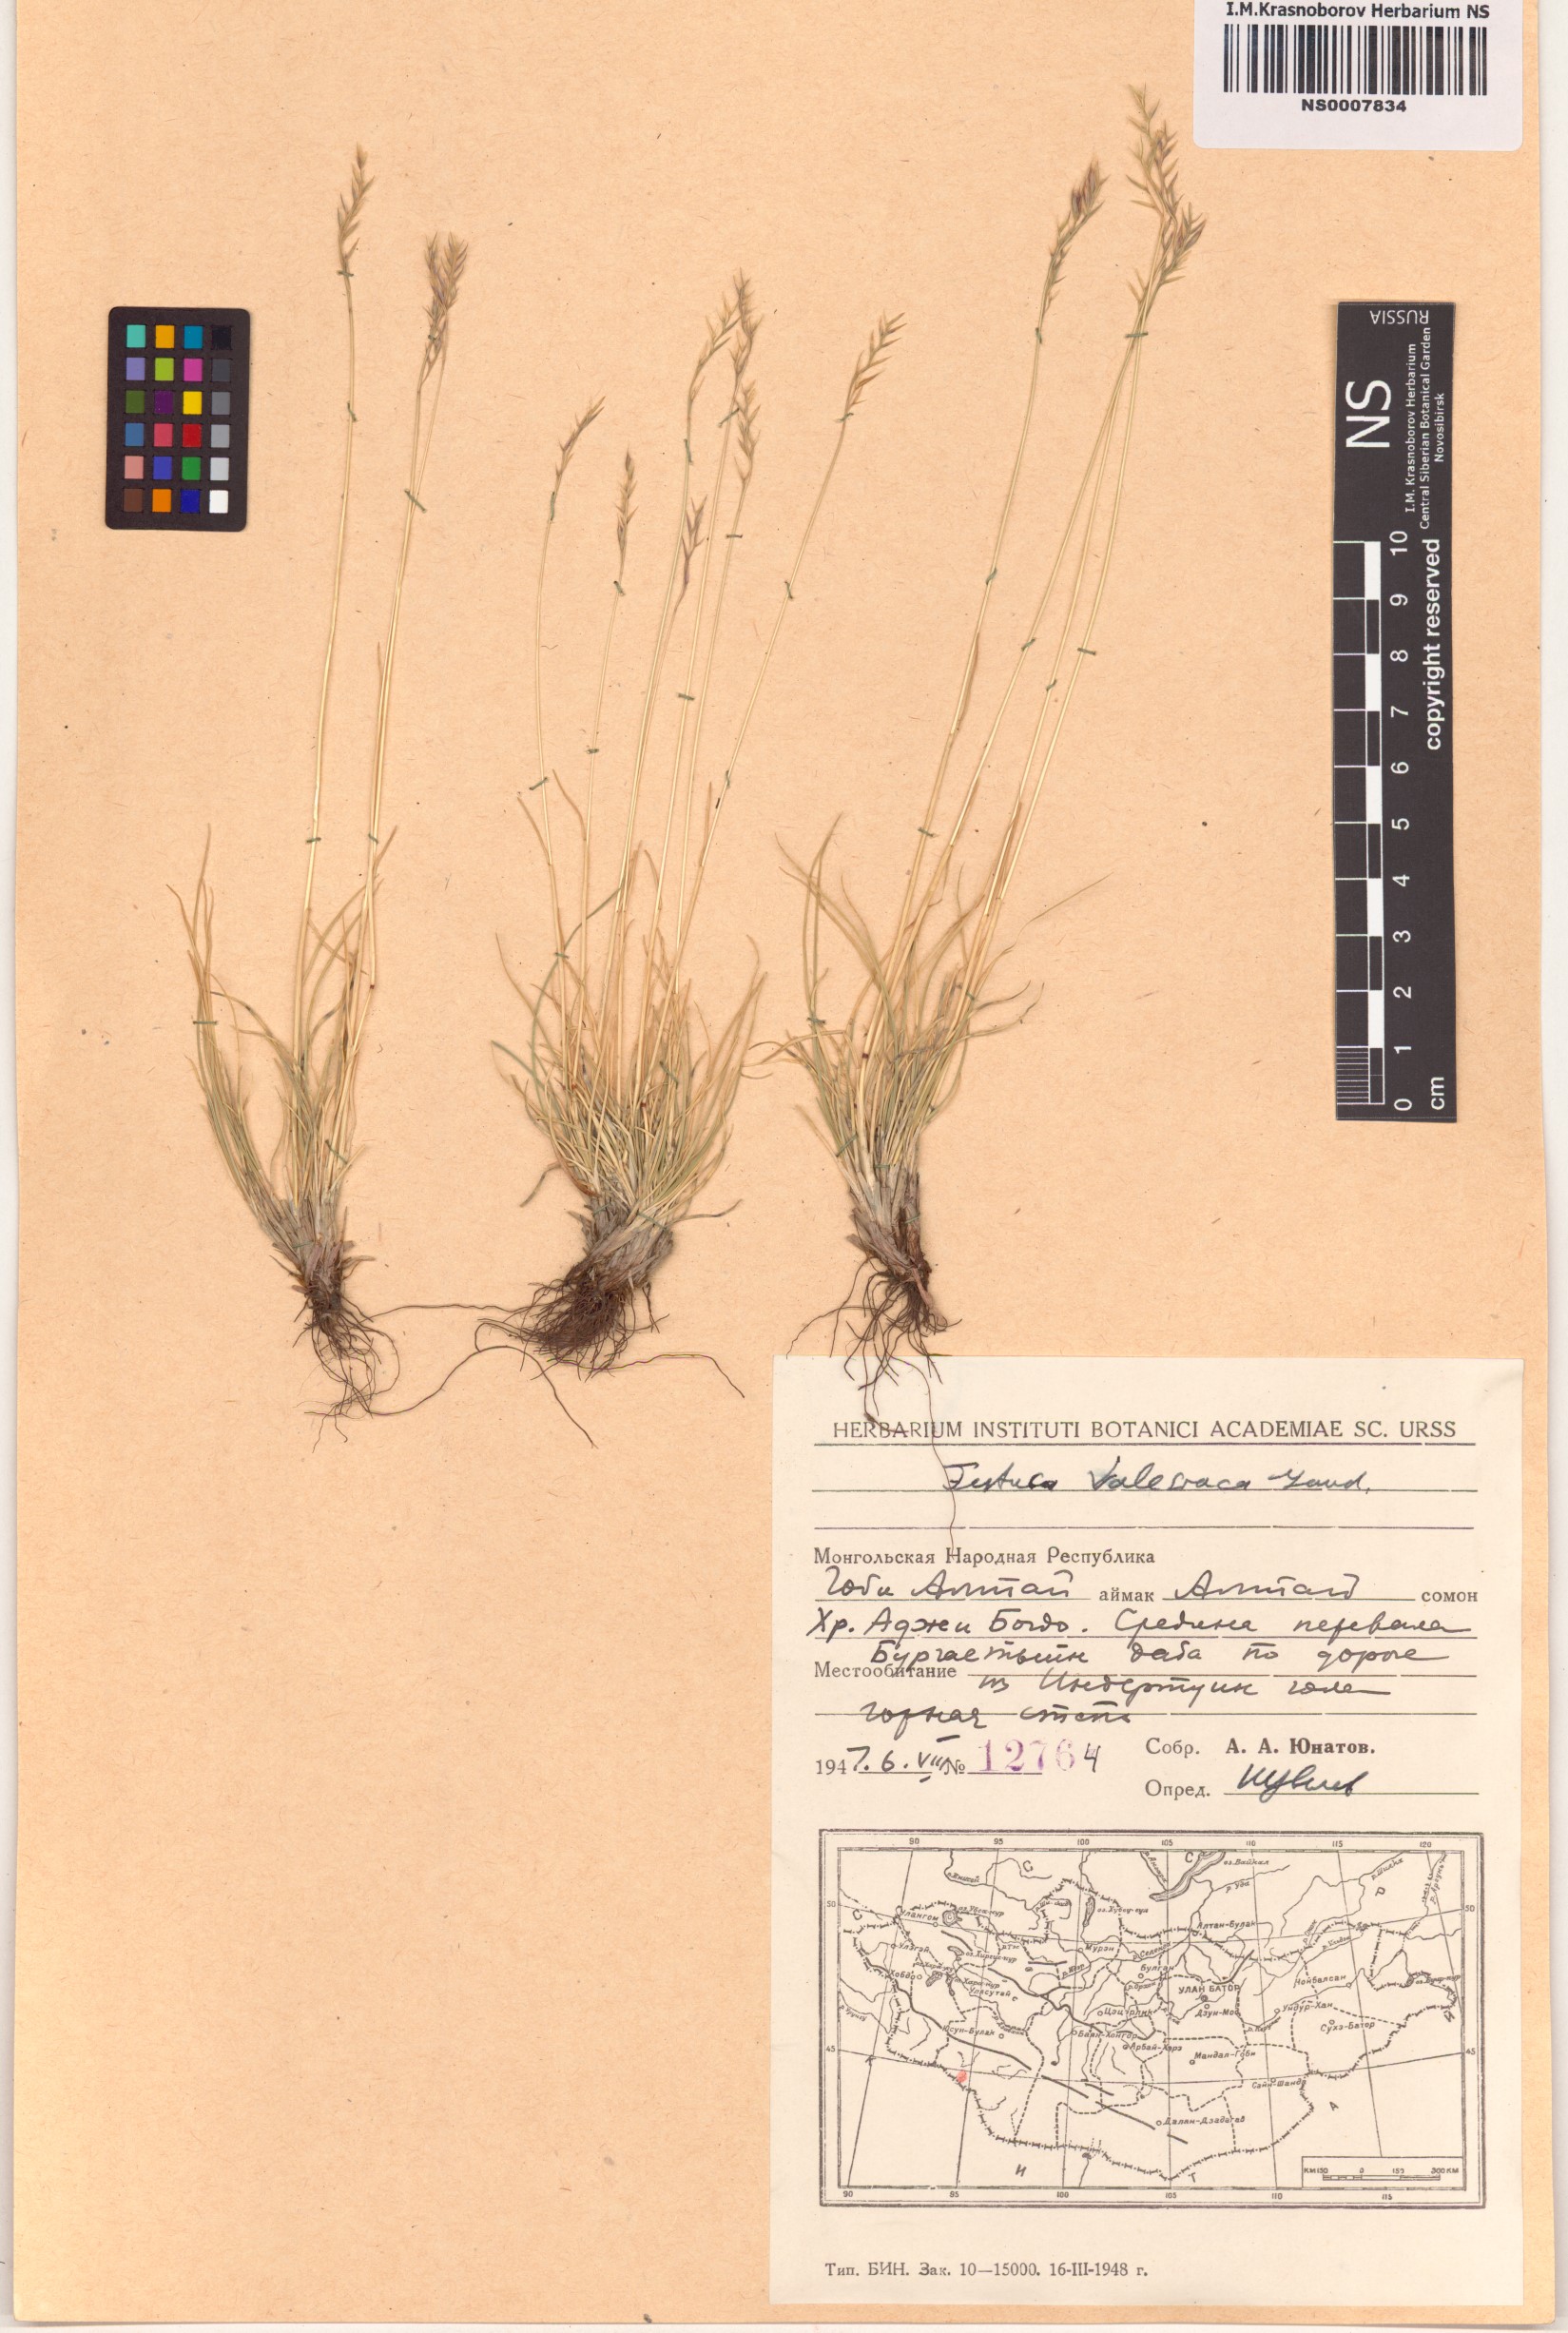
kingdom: Plantae
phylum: Tracheophyta
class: Liliopsida
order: Poales
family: Poaceae
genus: Festuca
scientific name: Festuca valesiaca
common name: Volga fescue
